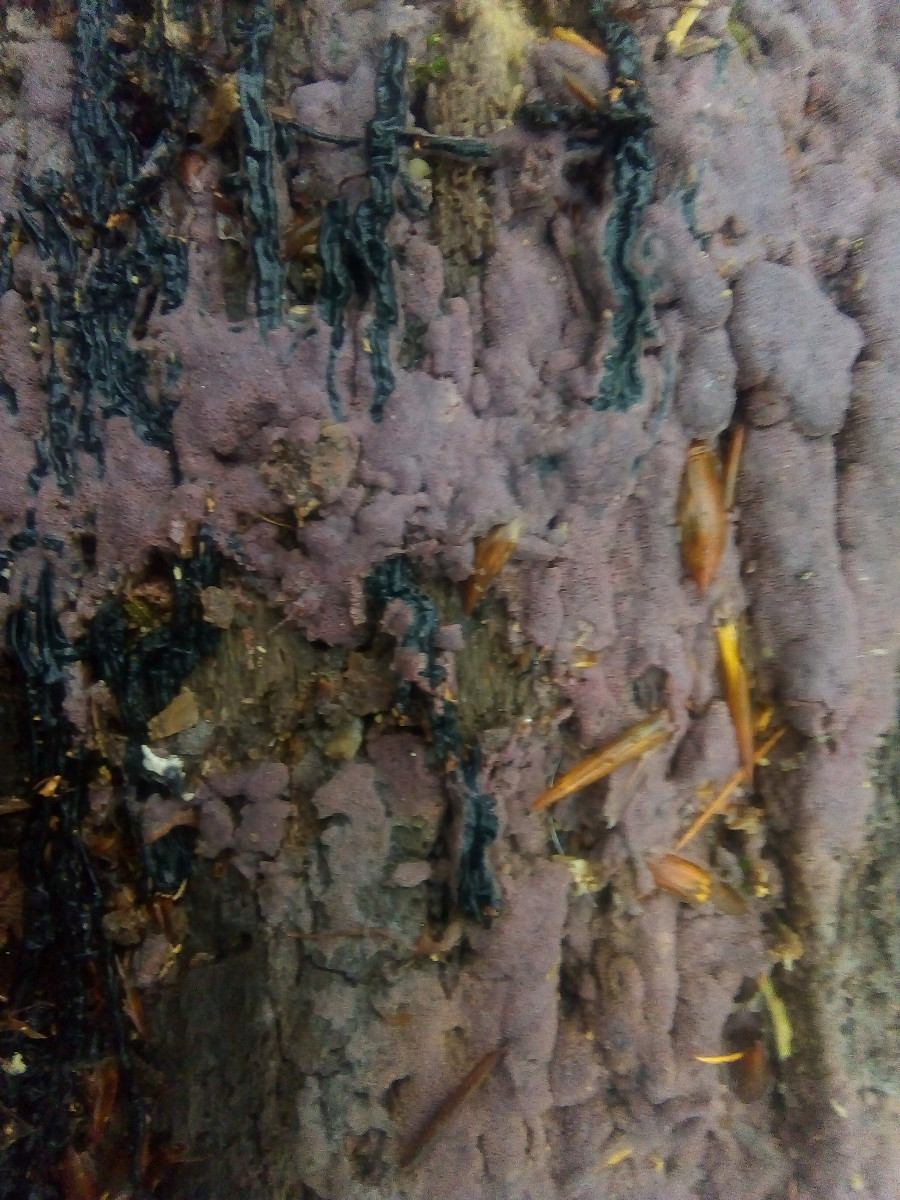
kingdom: Fungi
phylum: Basidiomycota
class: Agaricomycetes
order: Polyporales
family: Irpicaceae
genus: Ceriporia
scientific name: Ceriporia excelsa
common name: lilla voksporesvamp
